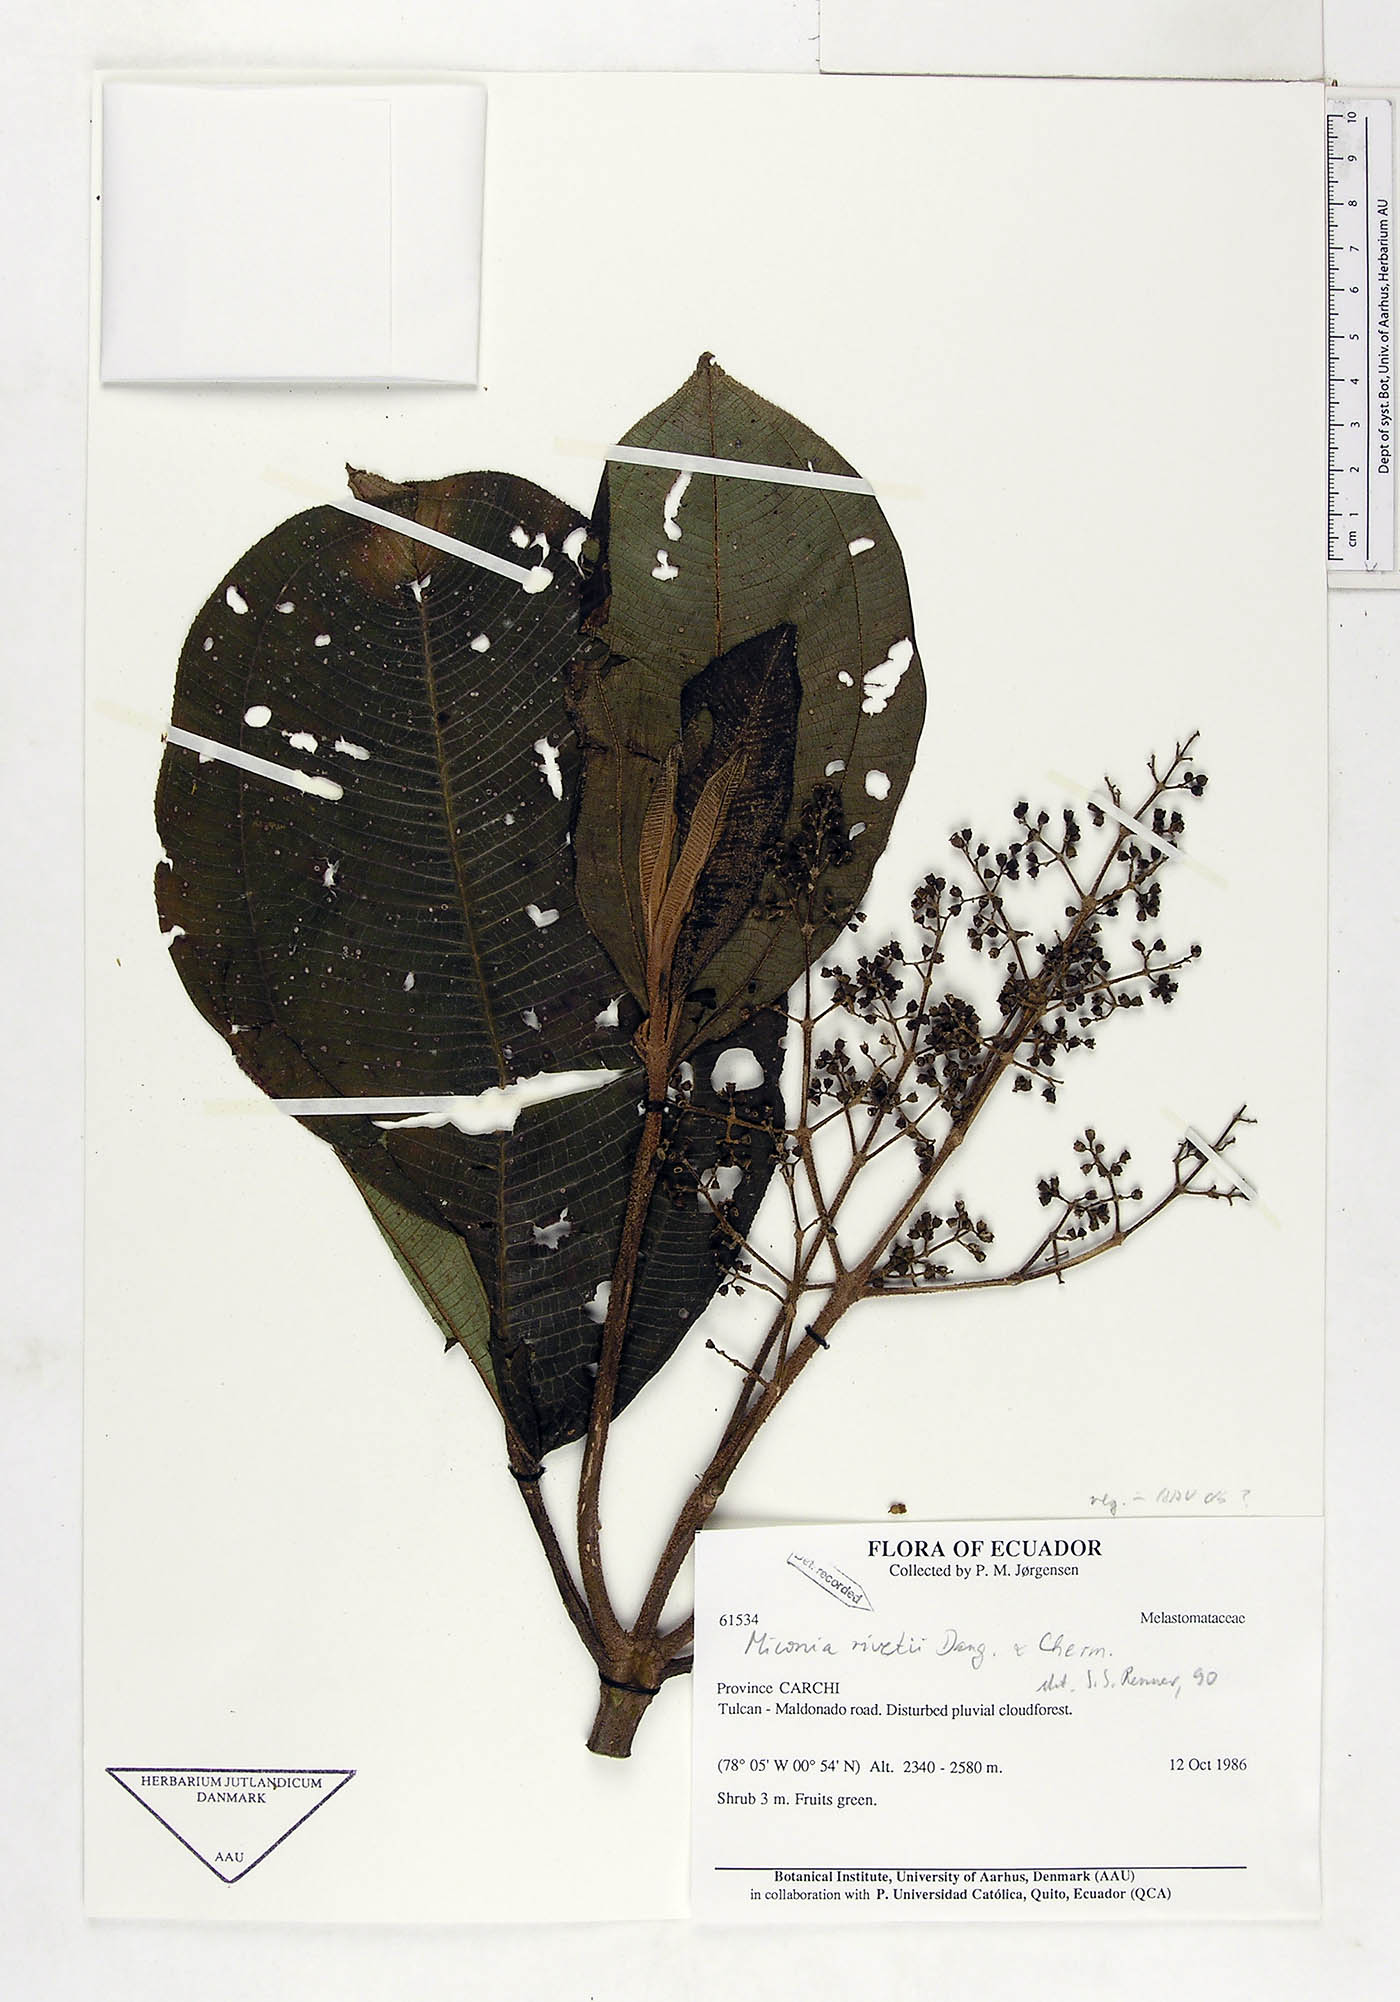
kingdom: Plantae
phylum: Tracheophyta
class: Magnoliopsida
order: Myrtales
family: Melastomataceae
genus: Miconia
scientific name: Miconia rivetii
